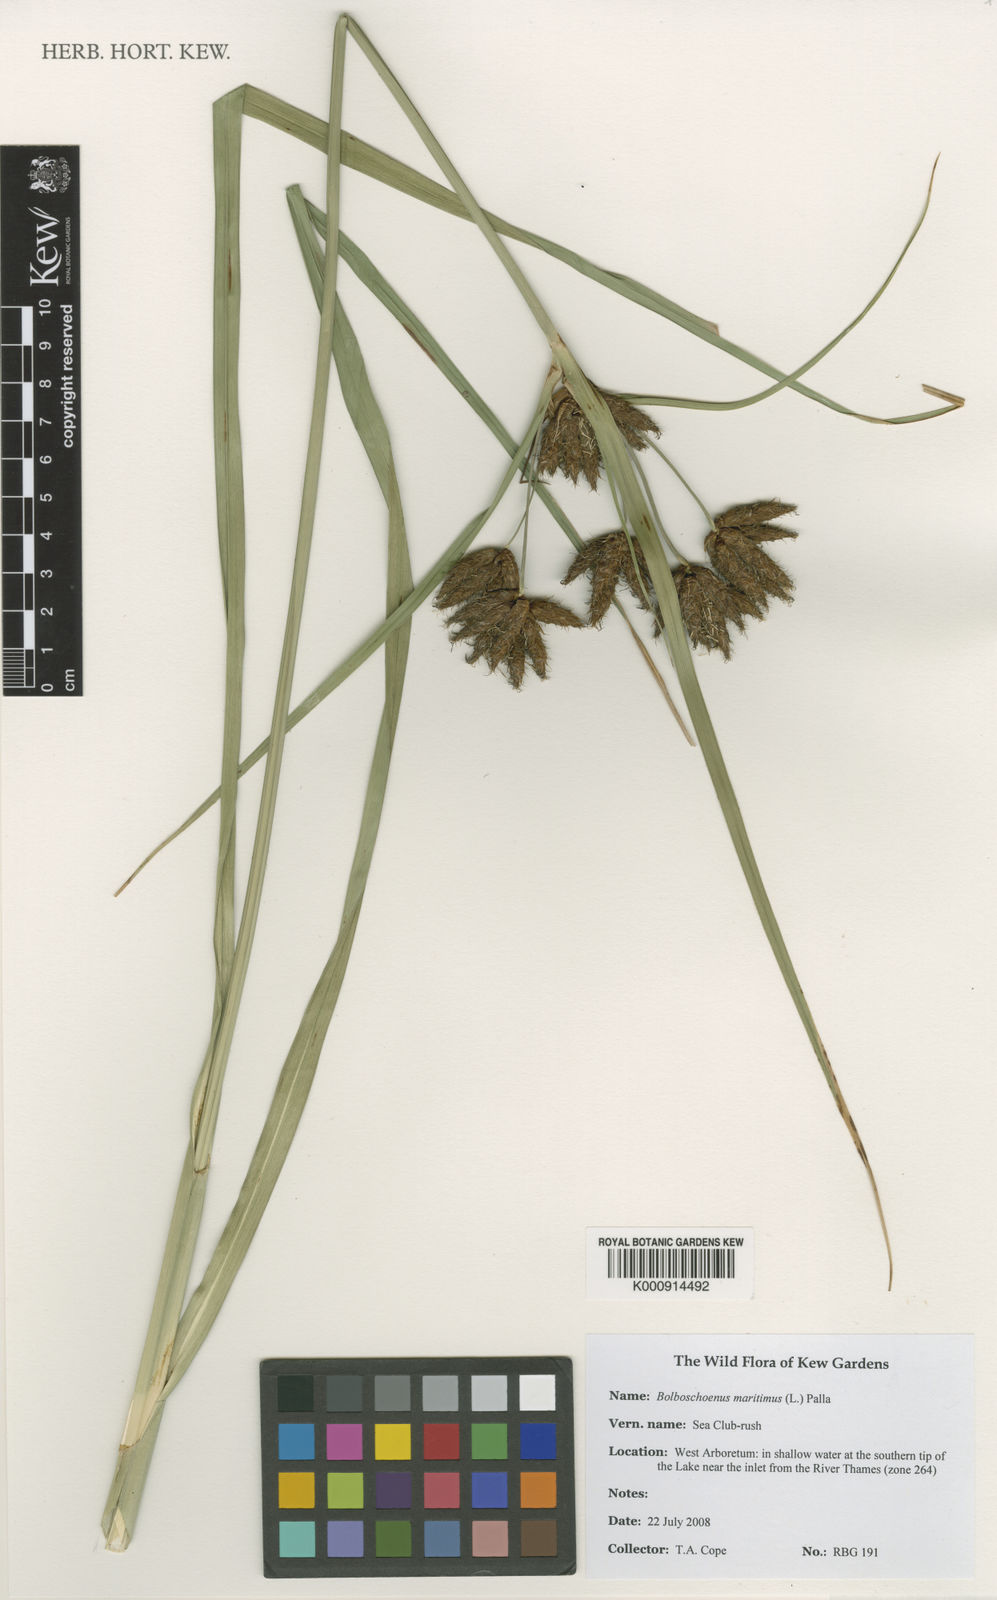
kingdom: Plantae
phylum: Tracheophyta
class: Liliopsida
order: Poales
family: Cyperaceae
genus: Bolboschoenus
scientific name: Bolboschoenus maritimus
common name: Sea club-rush
